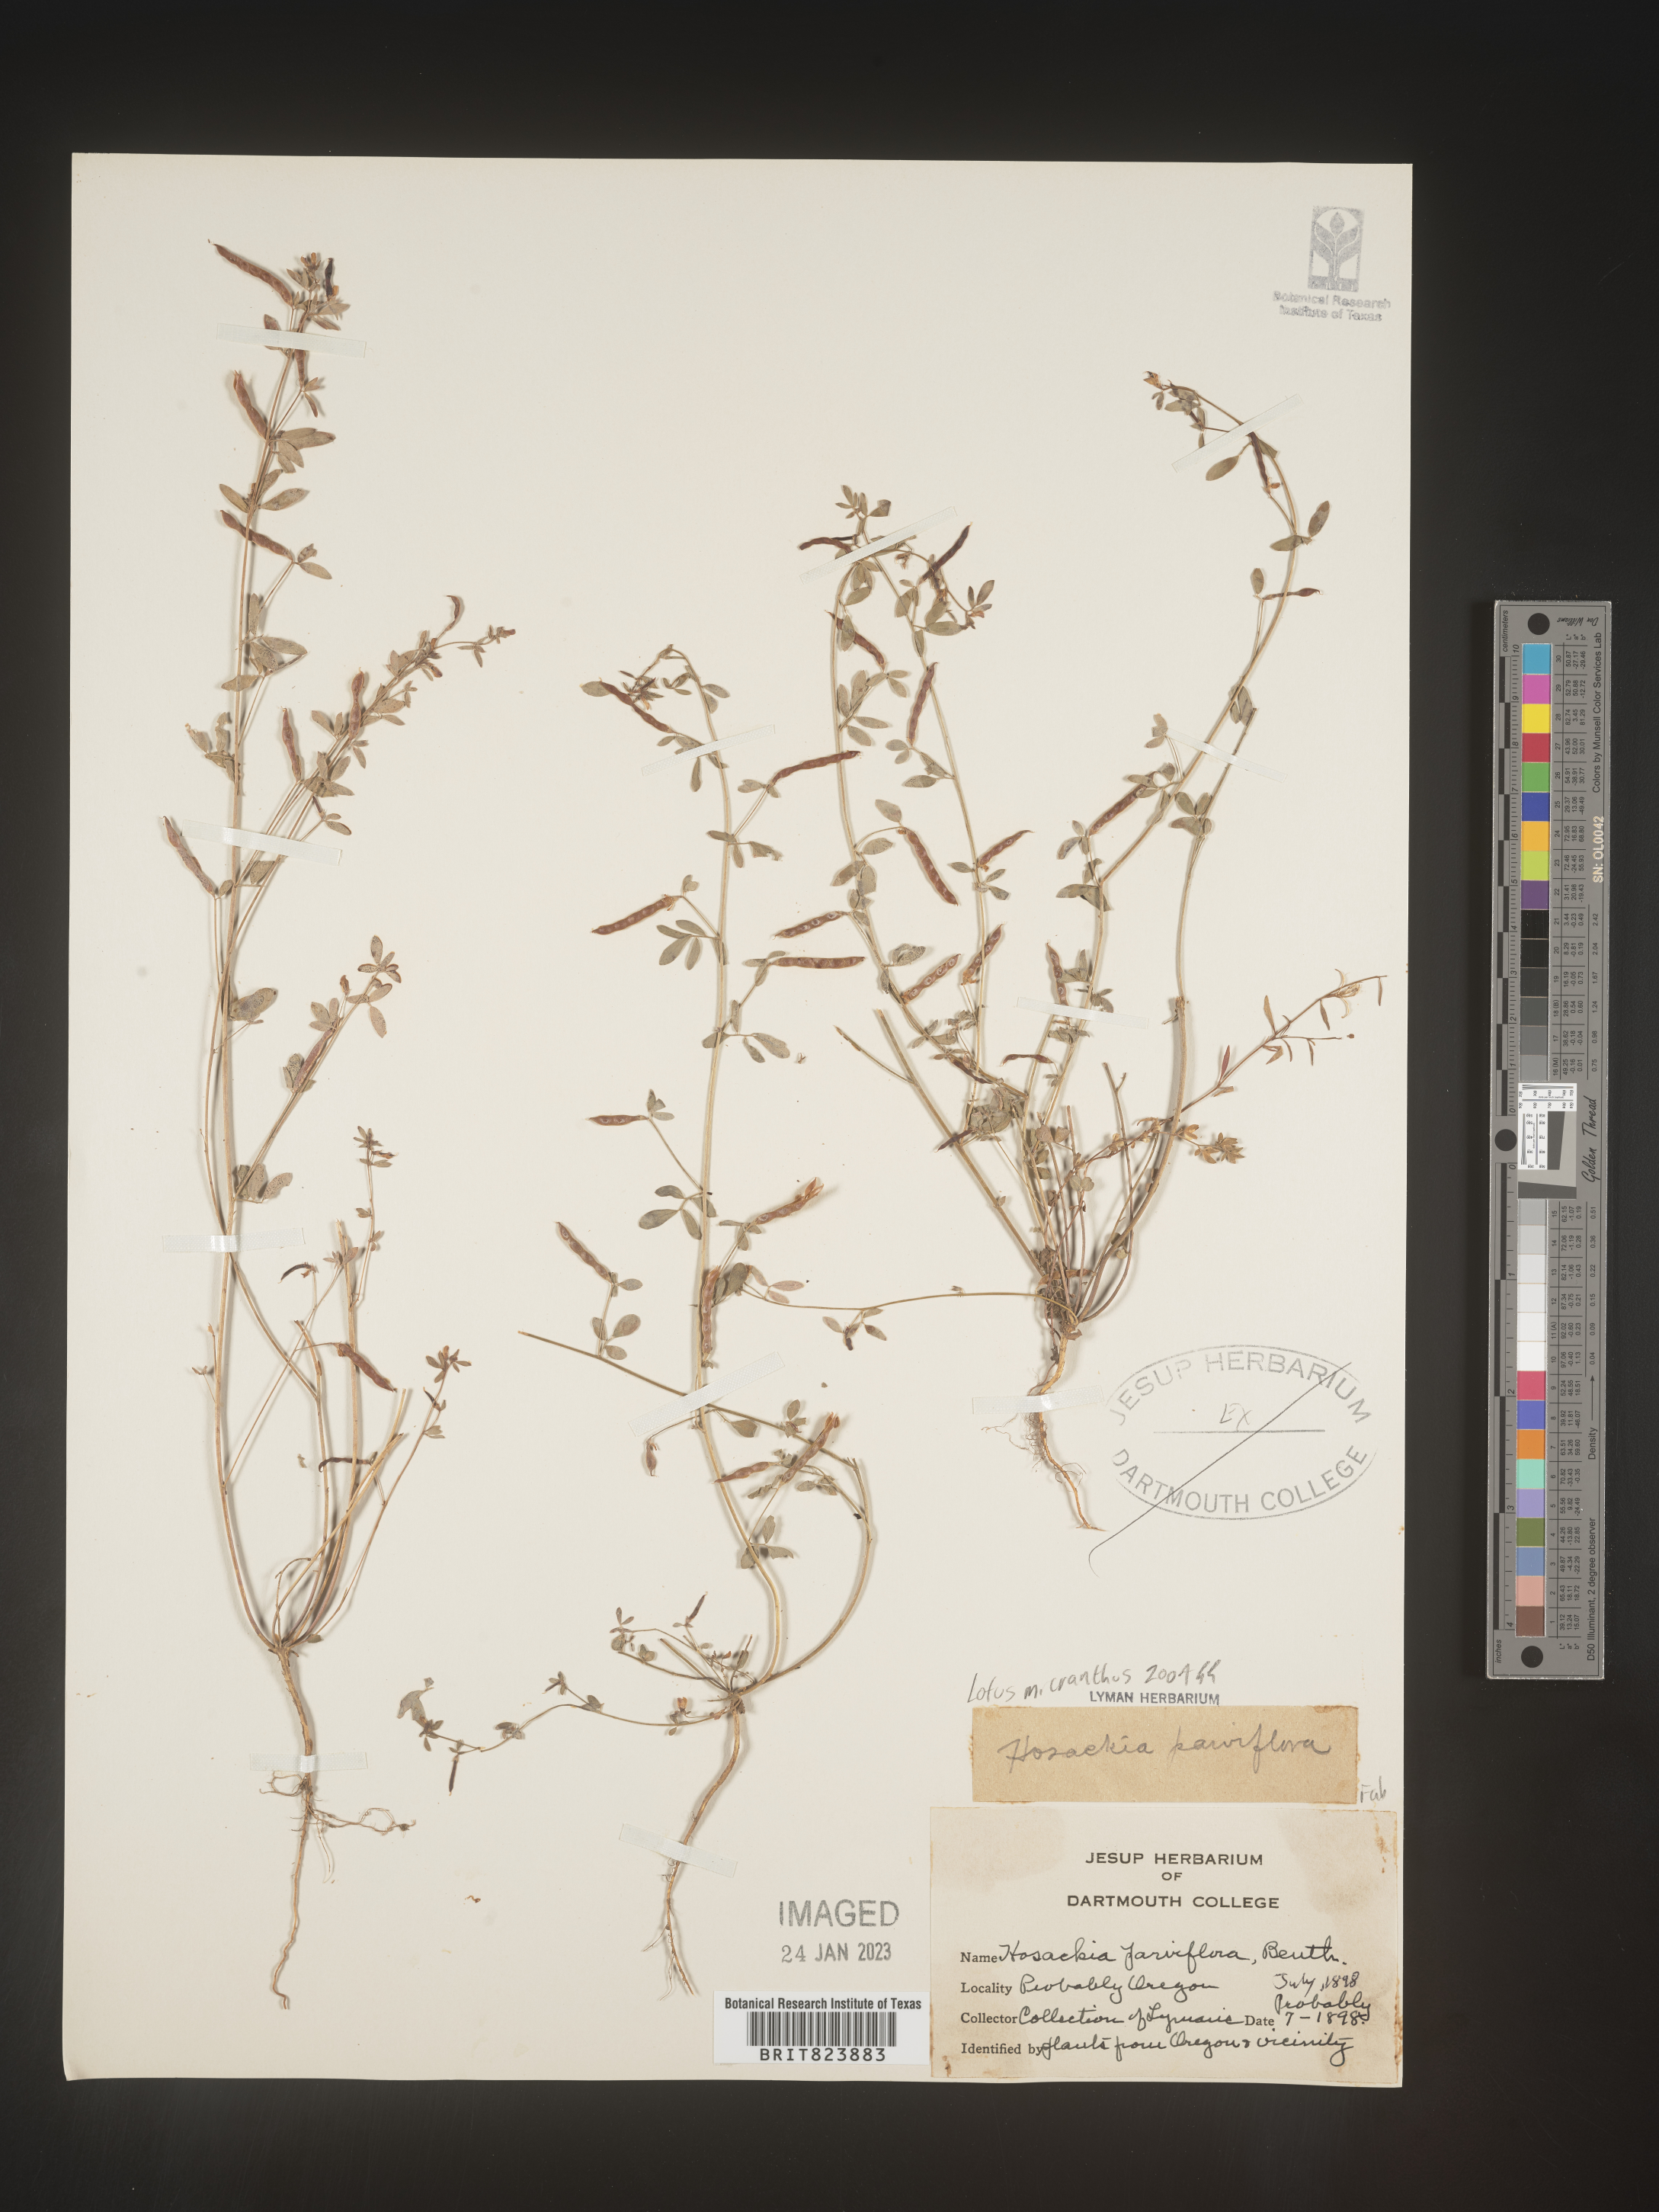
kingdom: Plantae
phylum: Tracheophyta
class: Magnoliopsida
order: Fabales
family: Fabaceae
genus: Lotus
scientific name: Lotus
